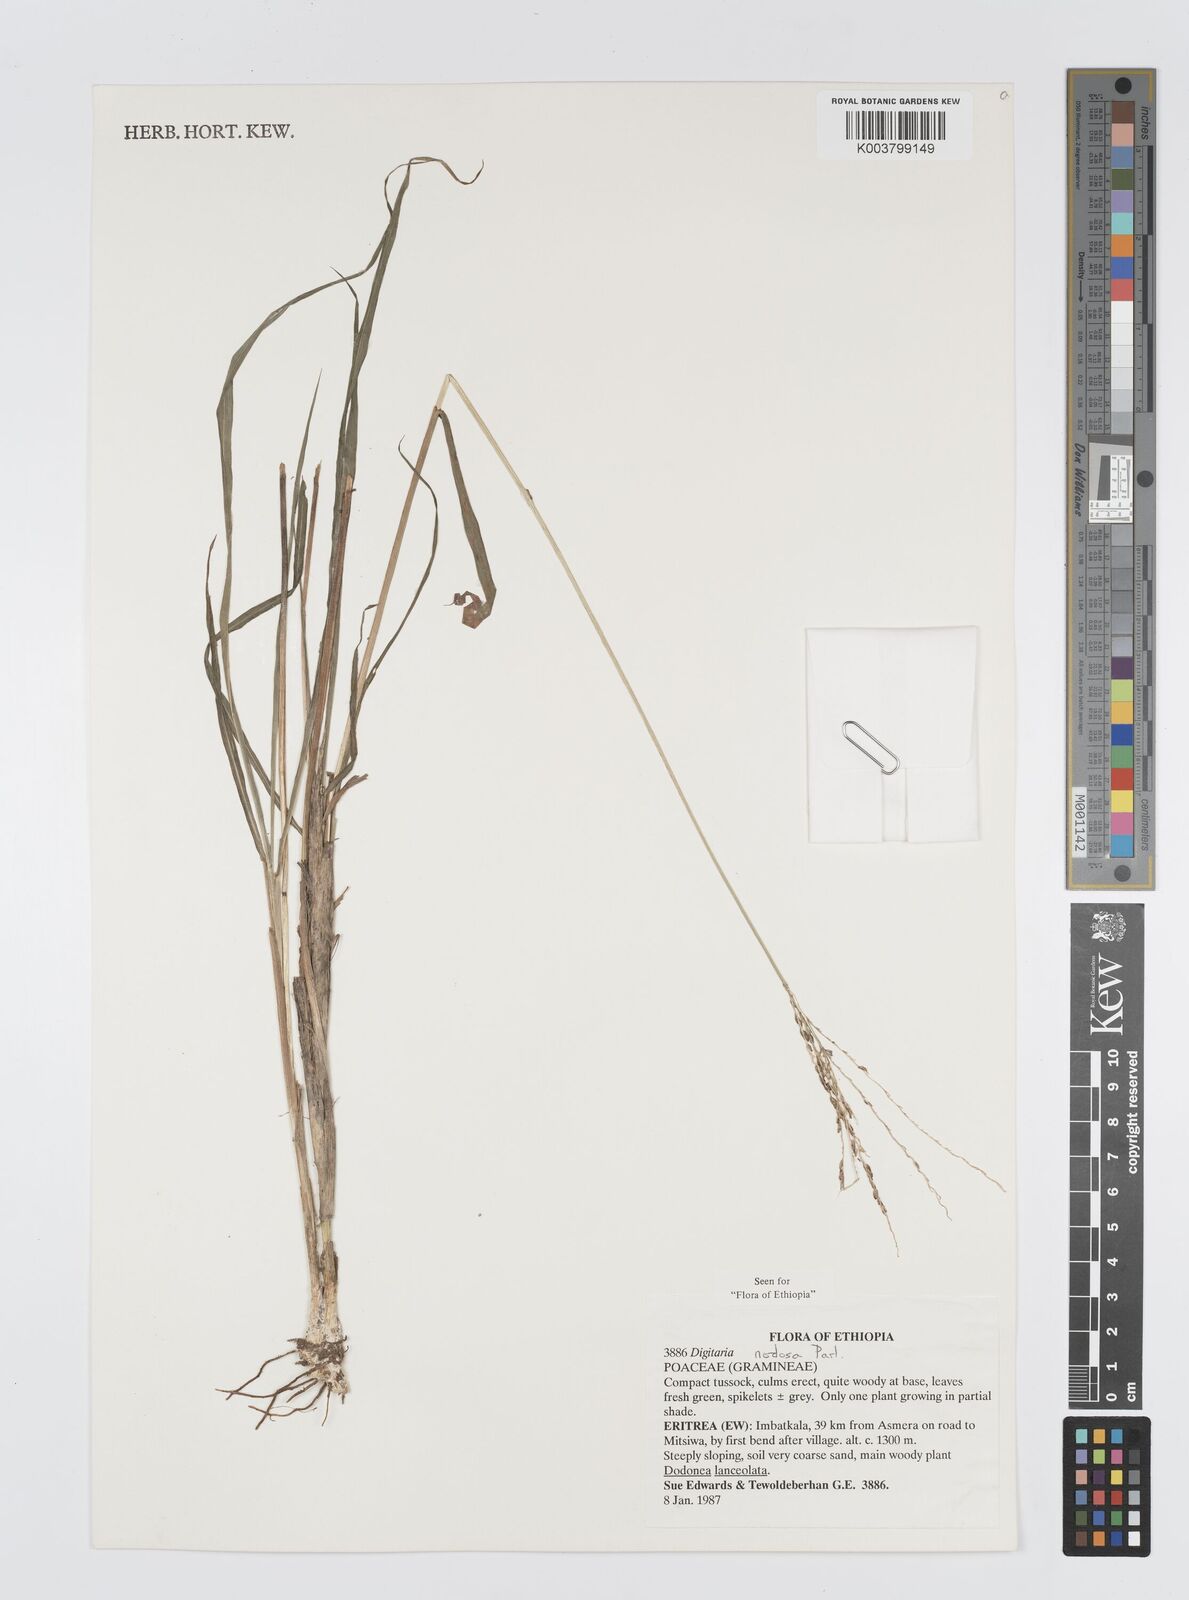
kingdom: Plantae
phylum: Tracheophyta
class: Liliopsida
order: Poales
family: Poaceae
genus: Digitaria
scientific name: Digitaria nodosa
